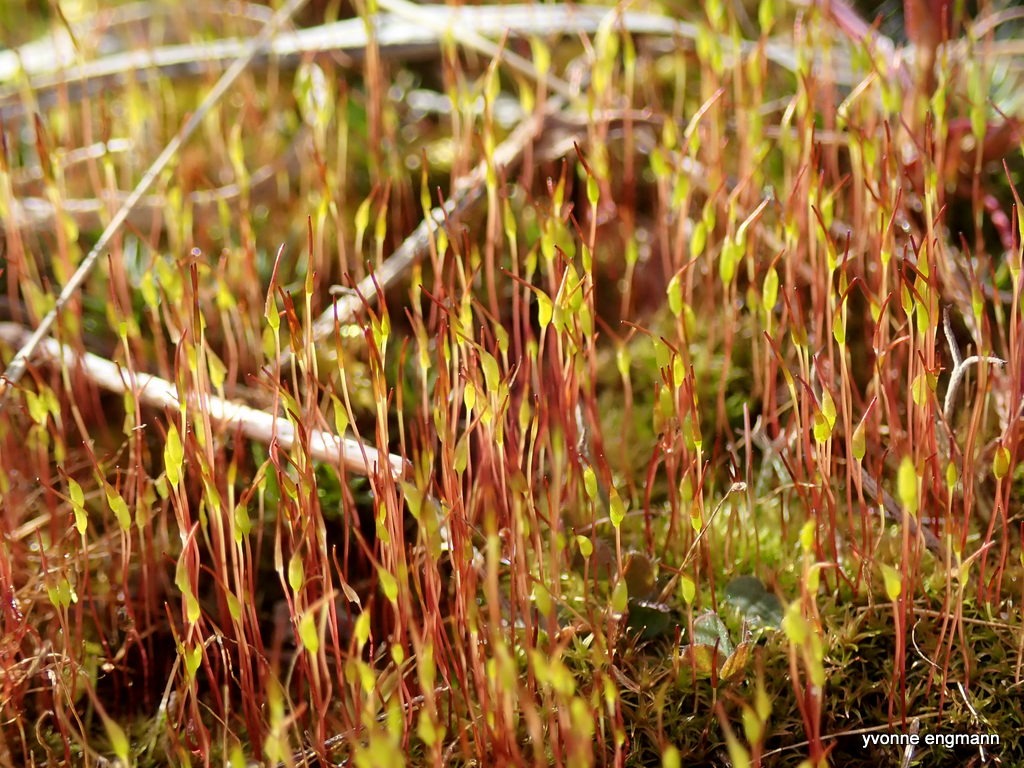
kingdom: Plantae
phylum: Bryophyta
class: Bryopsida
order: Dicranales
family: Ditrichaceae
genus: Ceratodon
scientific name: Ceratodon purpureus
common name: Rød horntand
